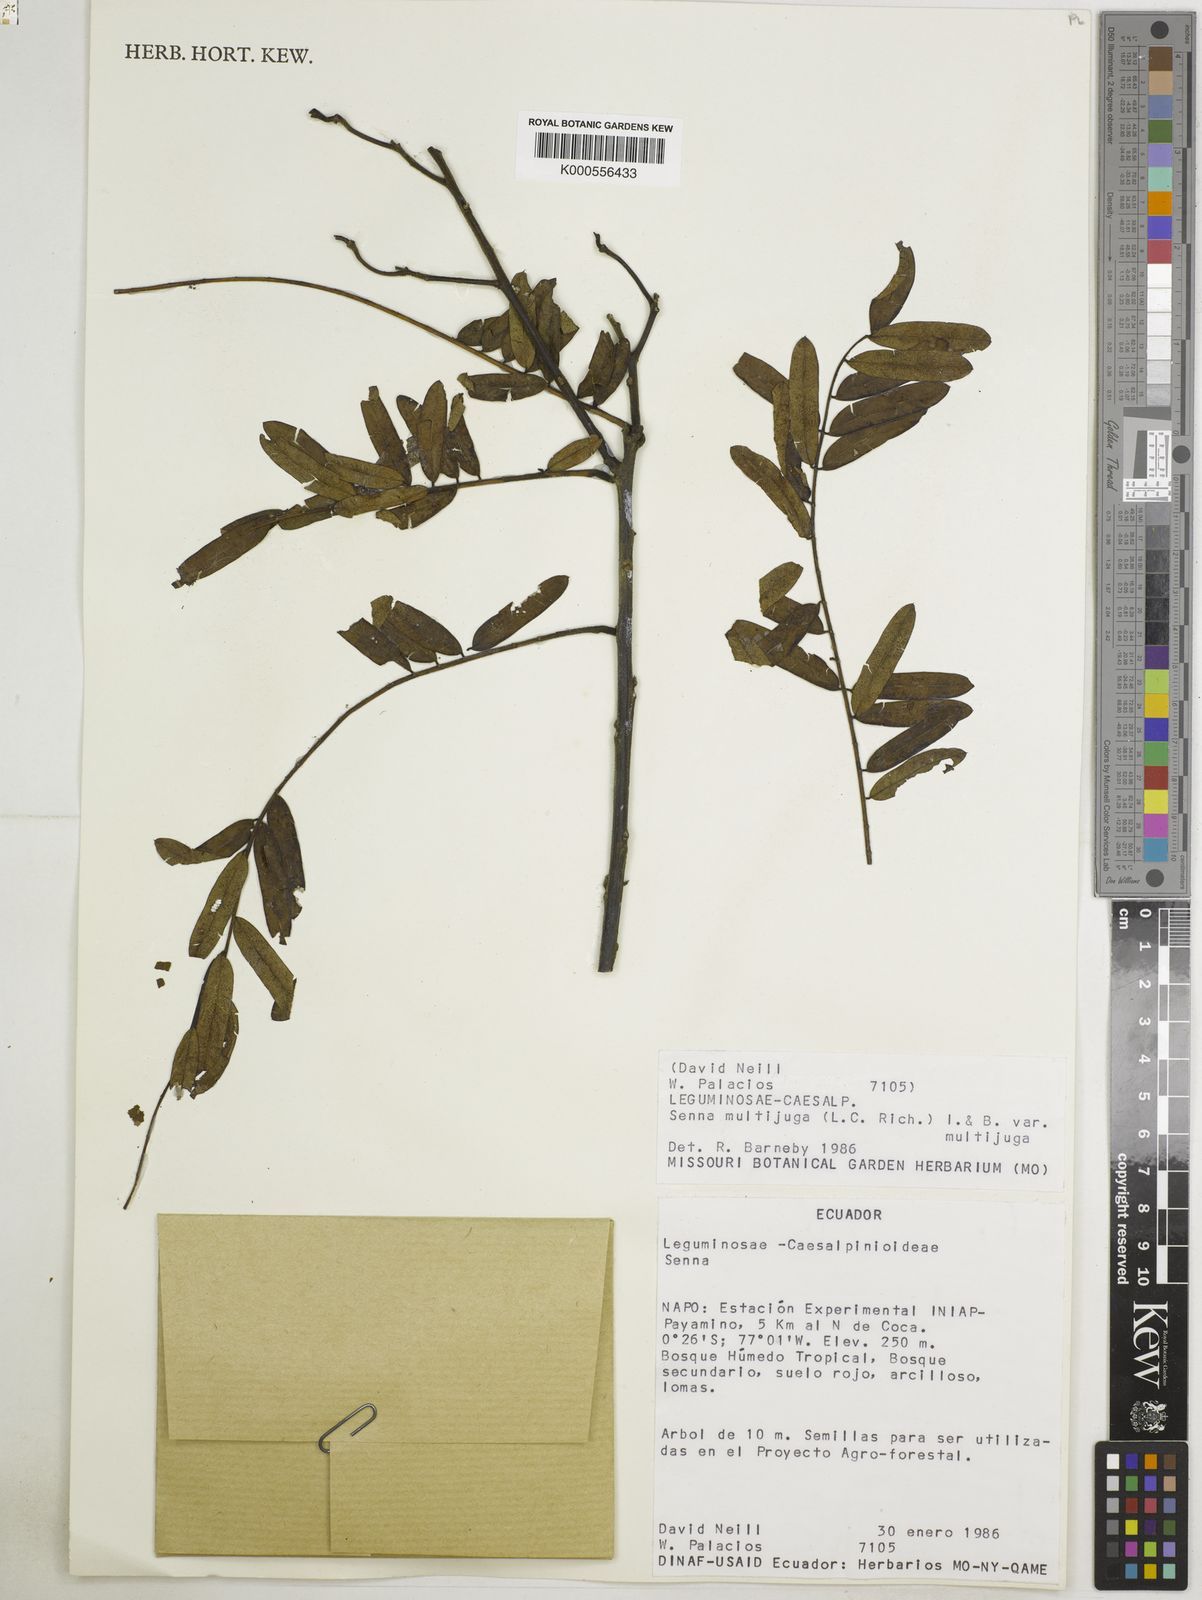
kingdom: Plantae
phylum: Tracheophyta
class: Magnoliopsida
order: Fabales
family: Fabaceae
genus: Senna
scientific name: Senna multijuga
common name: False sicklepod
